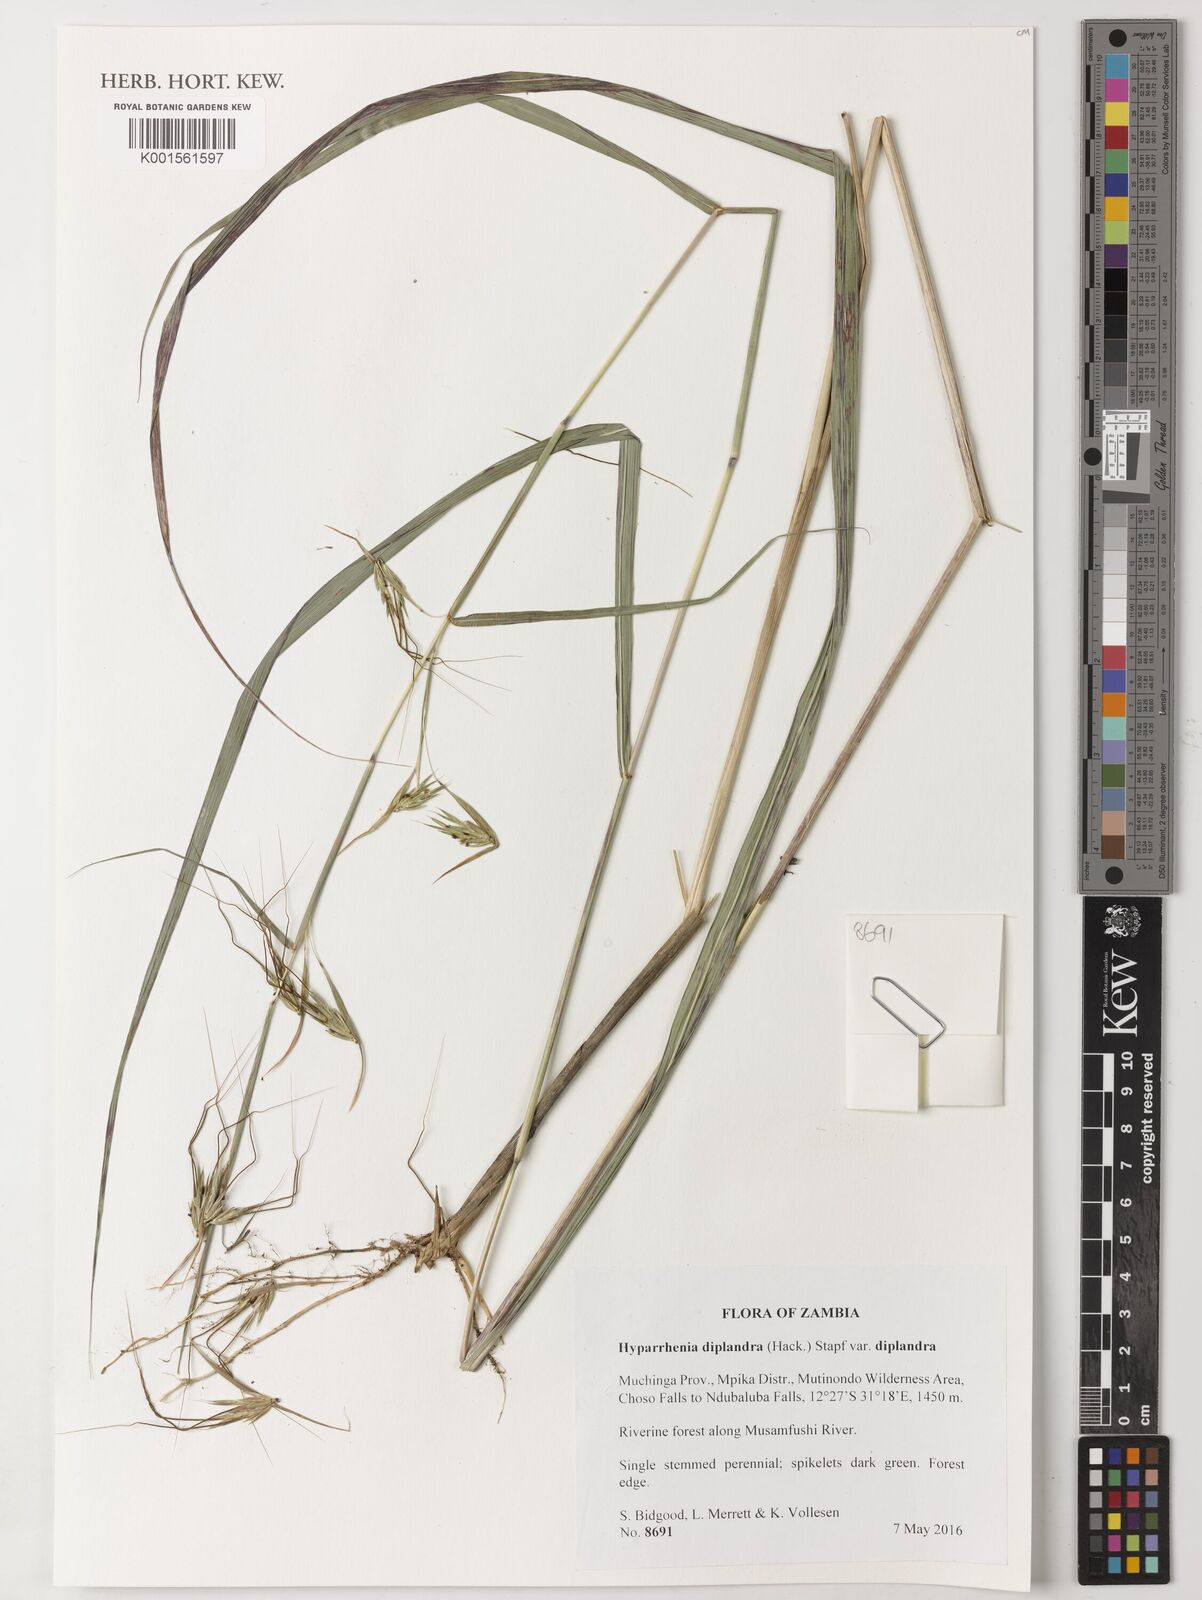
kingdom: Plantae
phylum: Tracheophyta
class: Liliopsida
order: Poales
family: Poaceae
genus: Hyparrhenia
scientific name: Hyparrhenia diplandra
